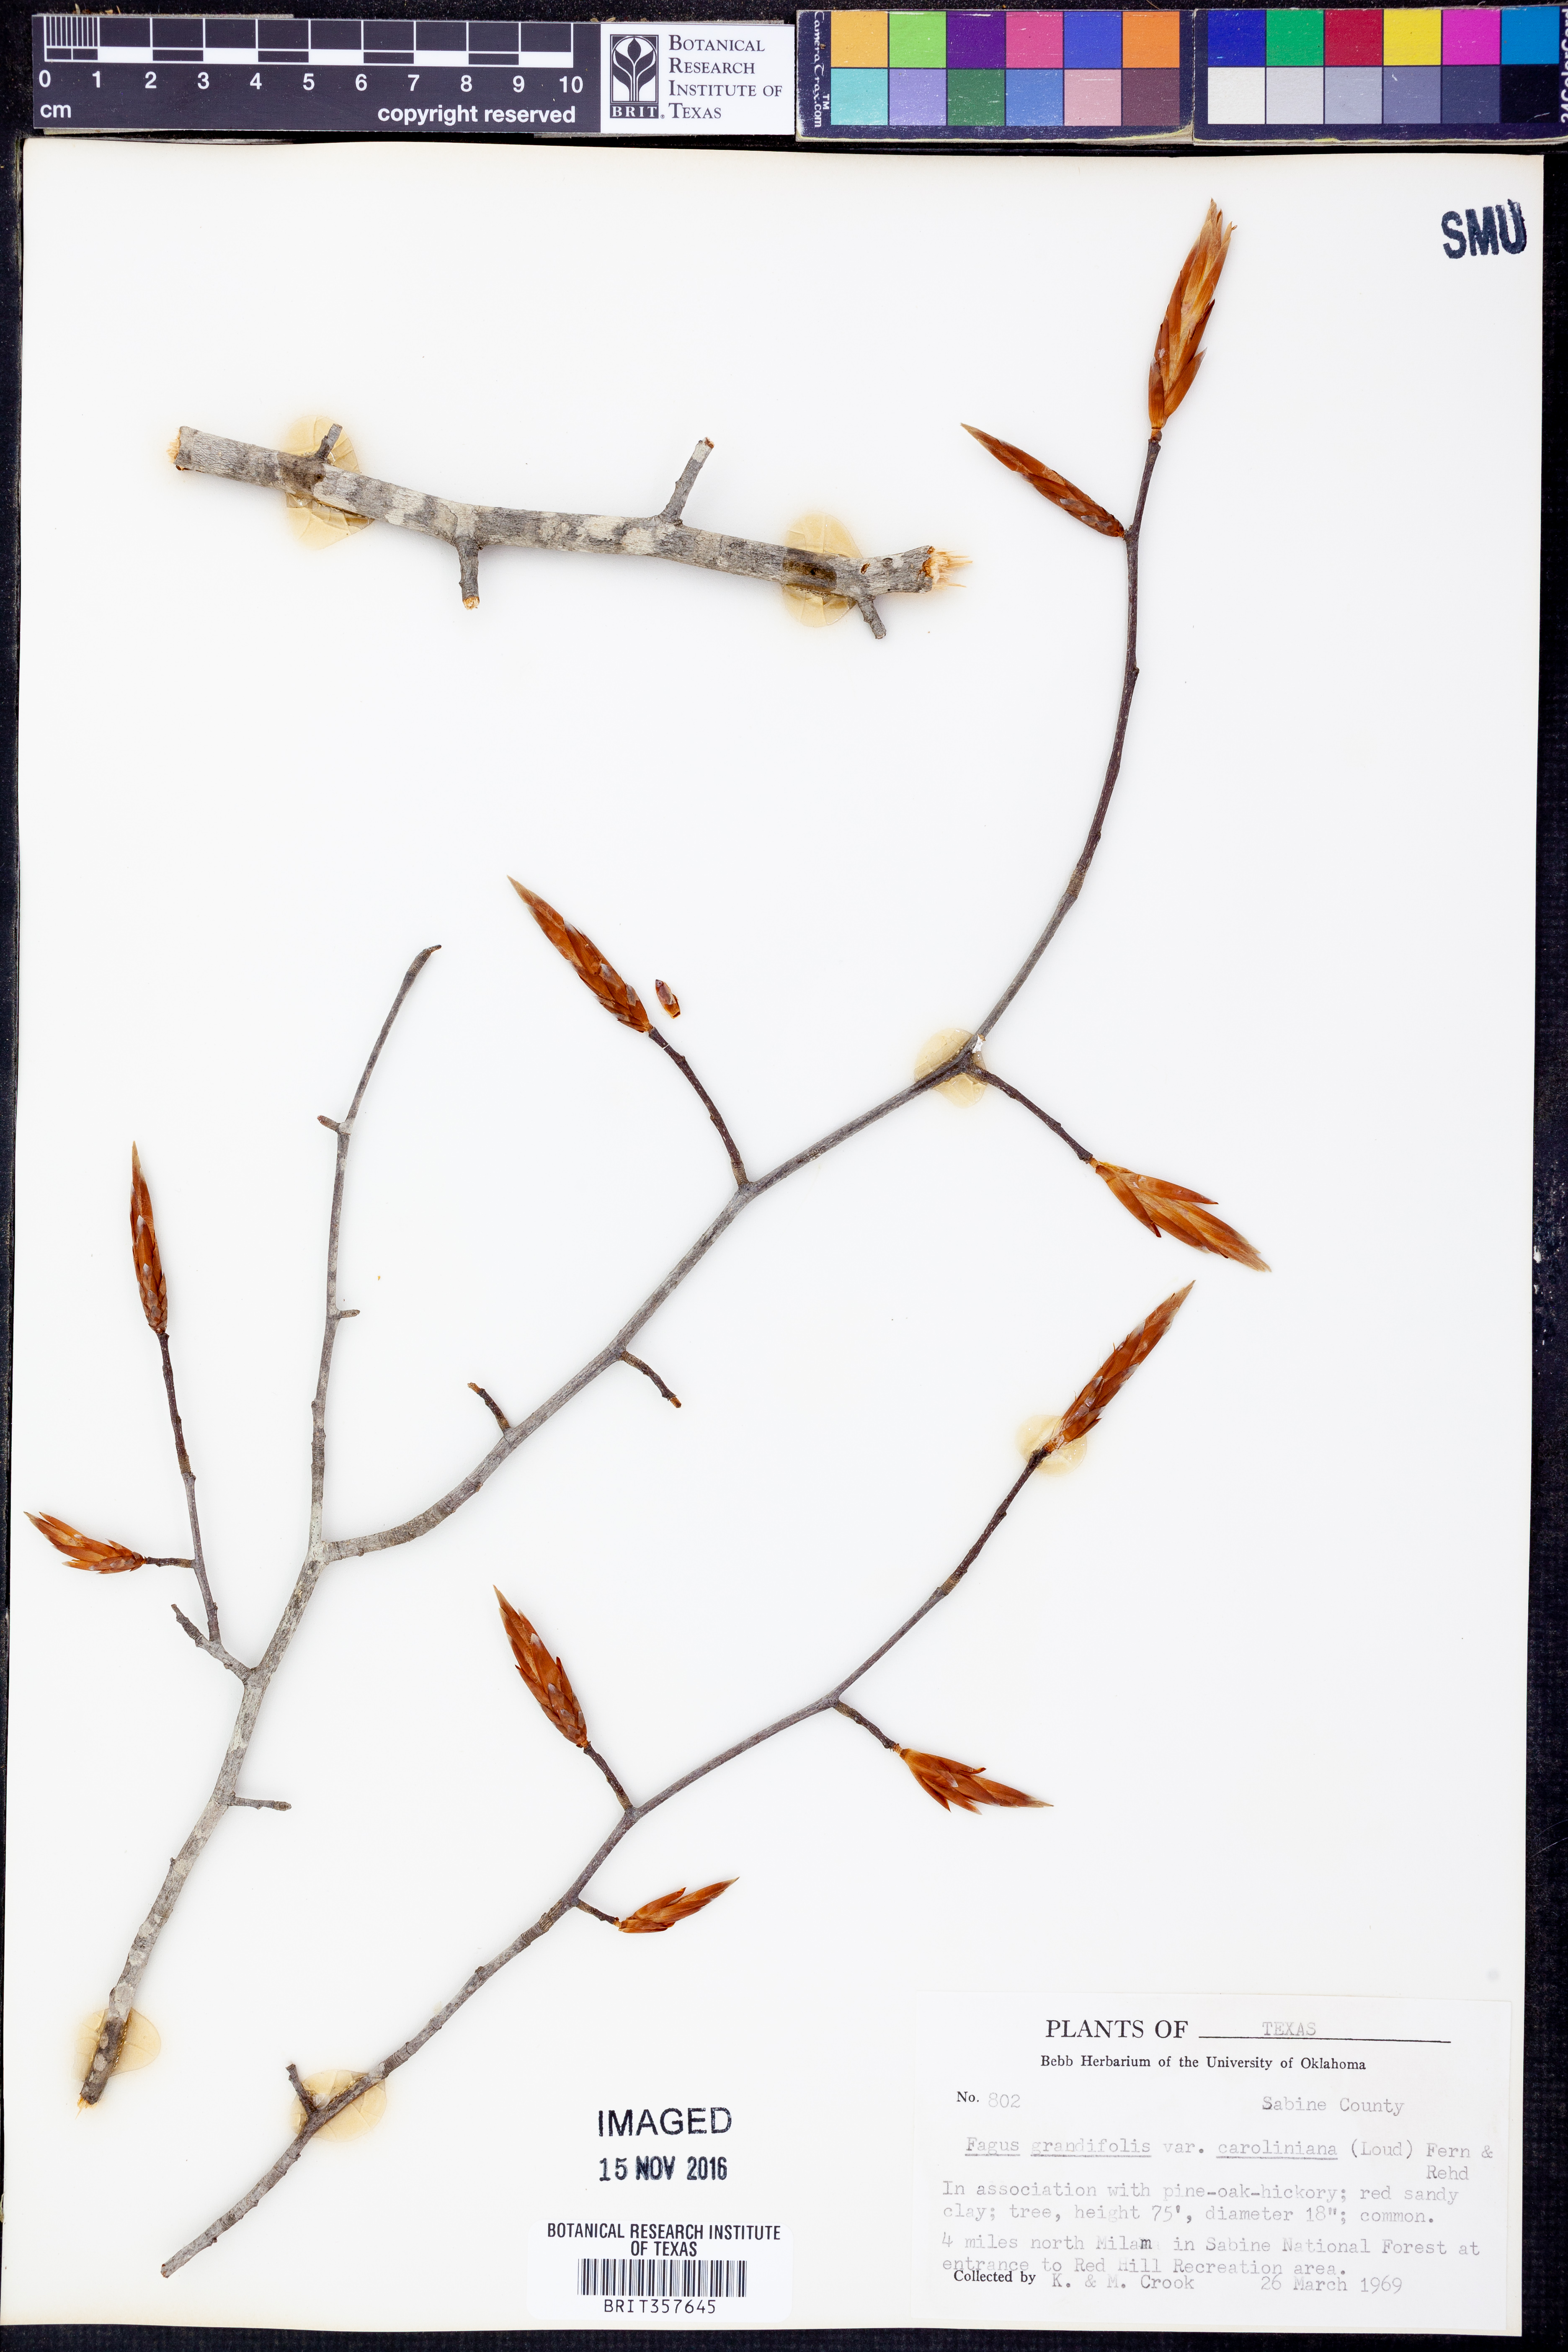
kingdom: Plantae
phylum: Tracheophyta
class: Magnoliopsida
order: Fagales
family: Fagaceae
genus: Fagus
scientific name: Fagus grandifolia
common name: American beech
